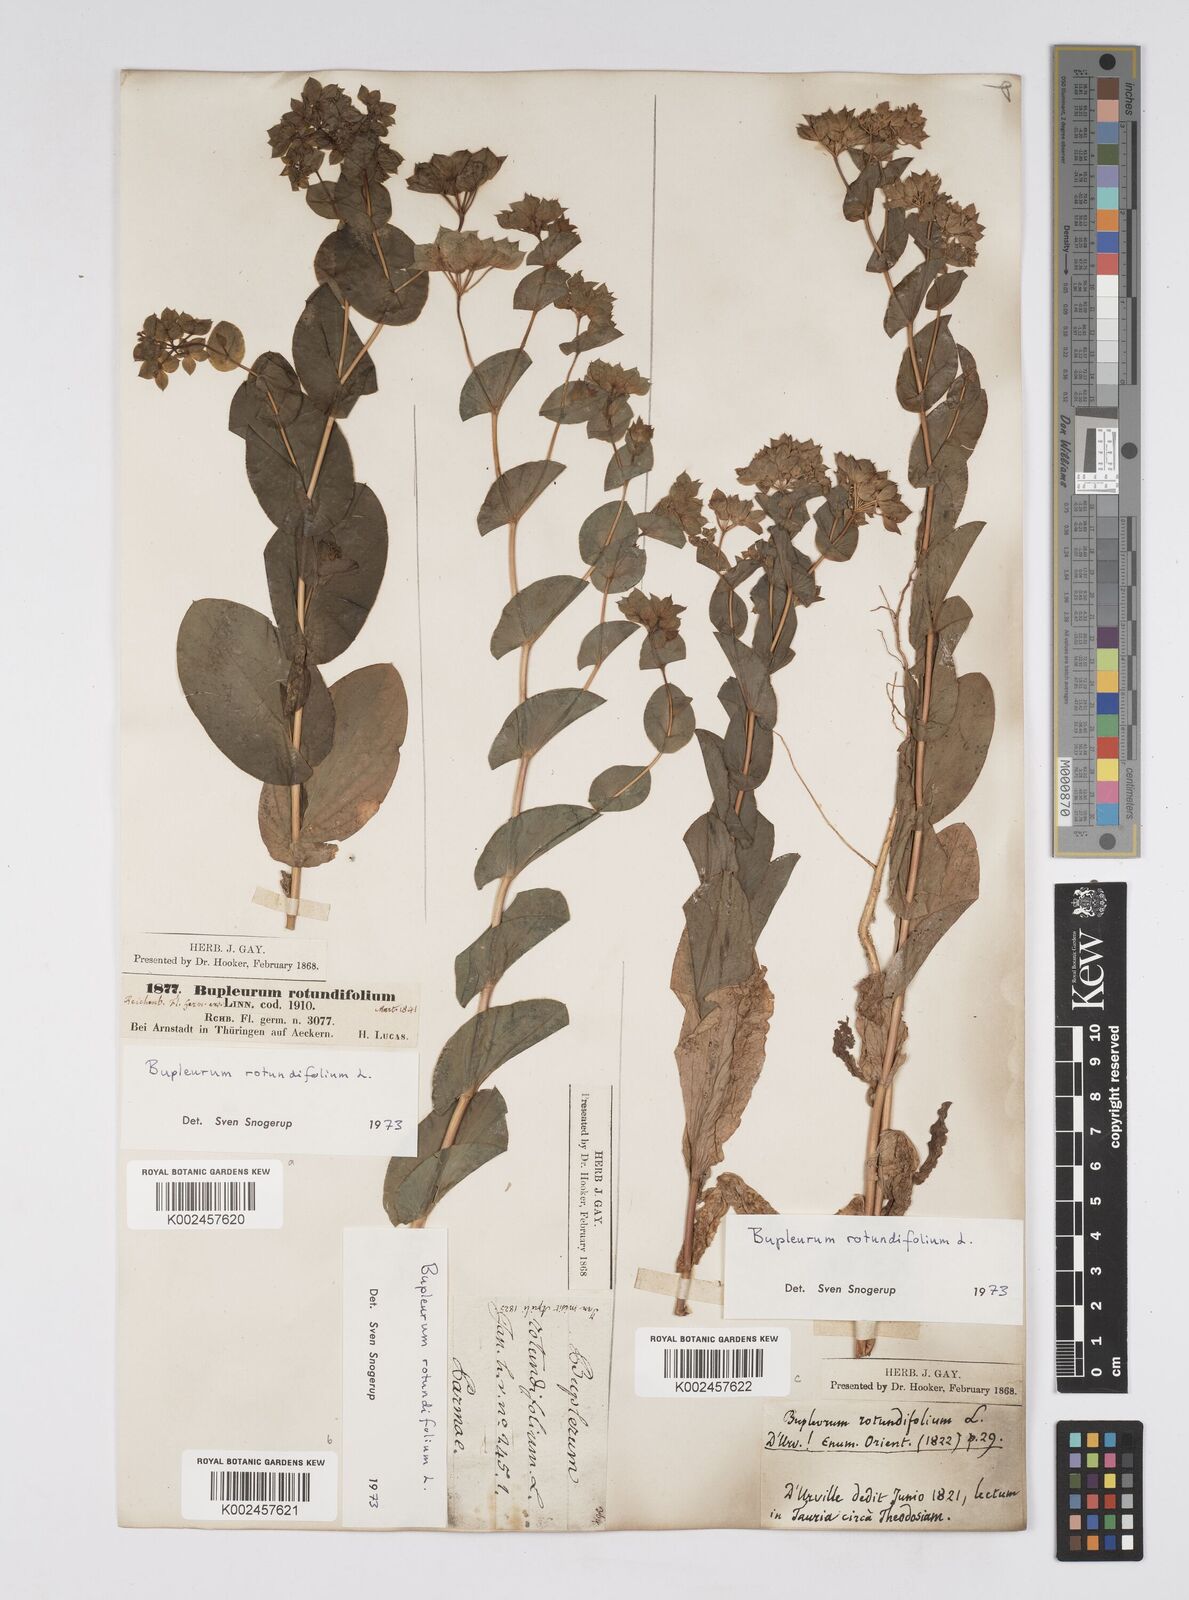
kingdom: Plantae
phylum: Tracheophyta
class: Magnoliopsida
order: Apiales
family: Apiaceae
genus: Bupleurum
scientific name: Bupleurum rotundifolium
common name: Thorow-wax
